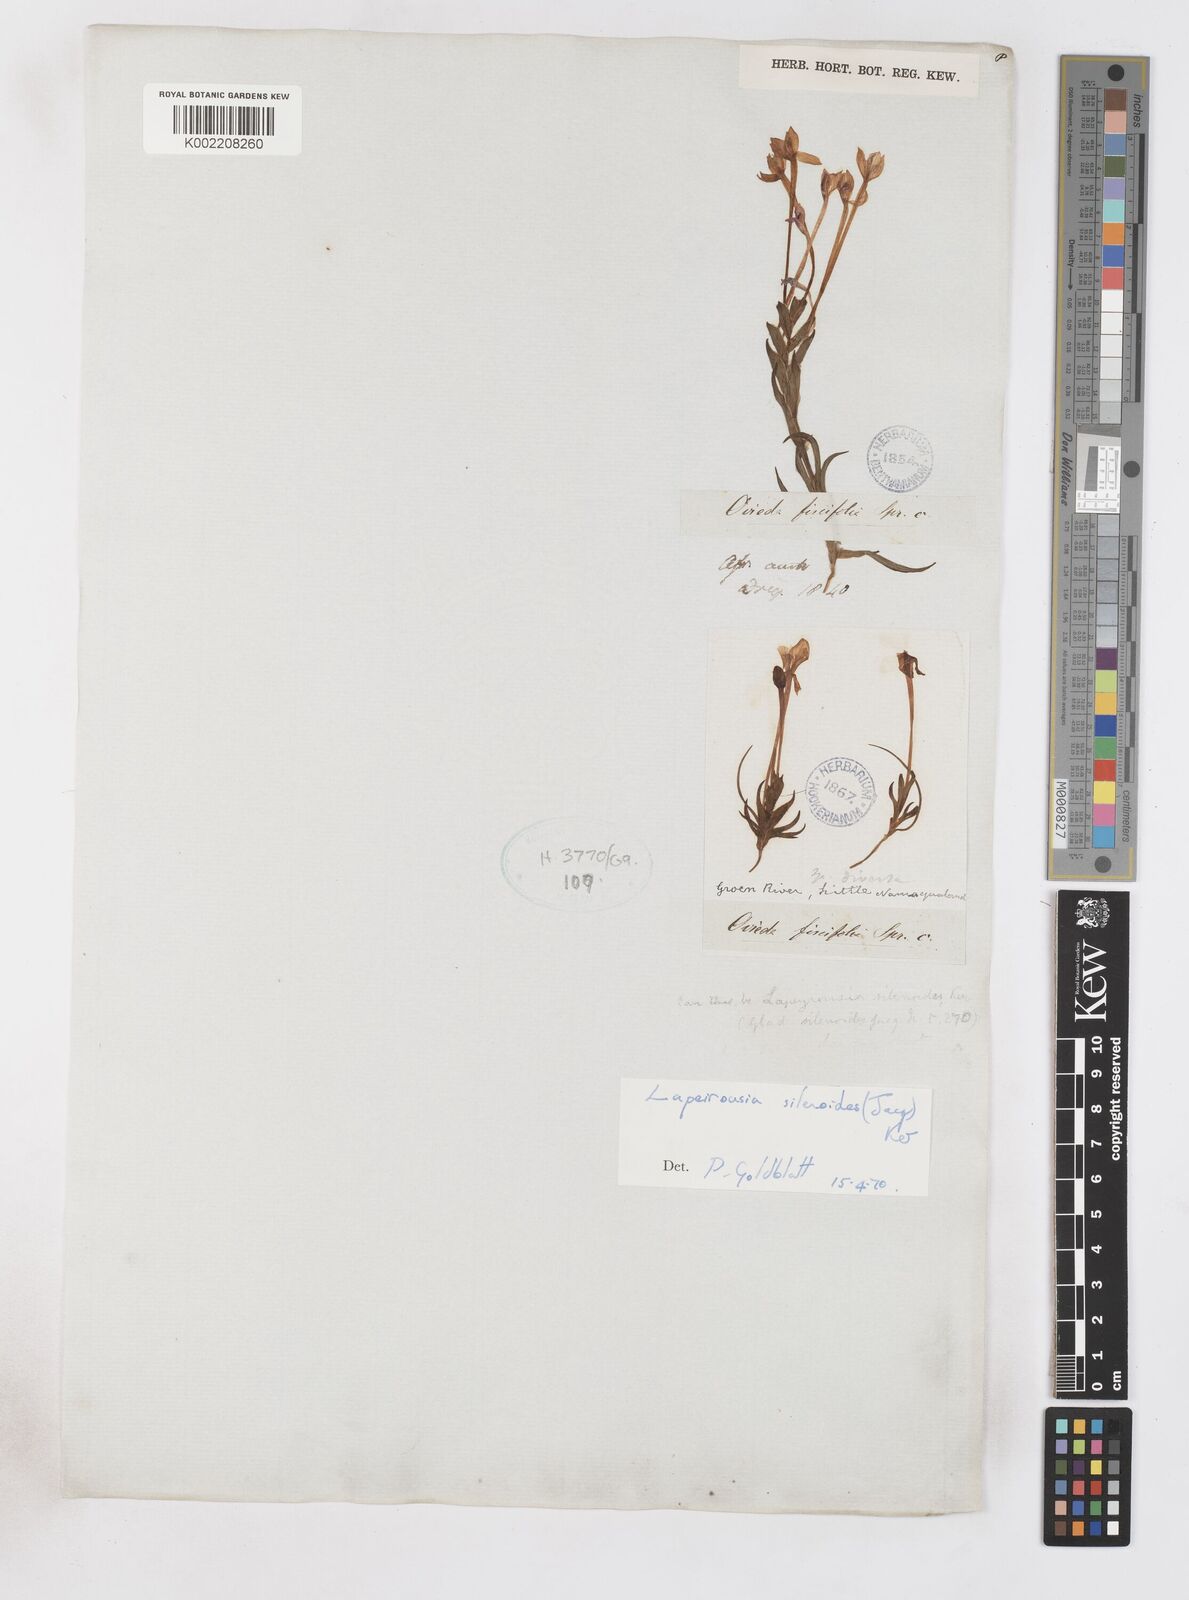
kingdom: Plantae
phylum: Tracheophyta
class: Liliopsida
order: Asparagales
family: Iridaceae
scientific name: Iridaceae
